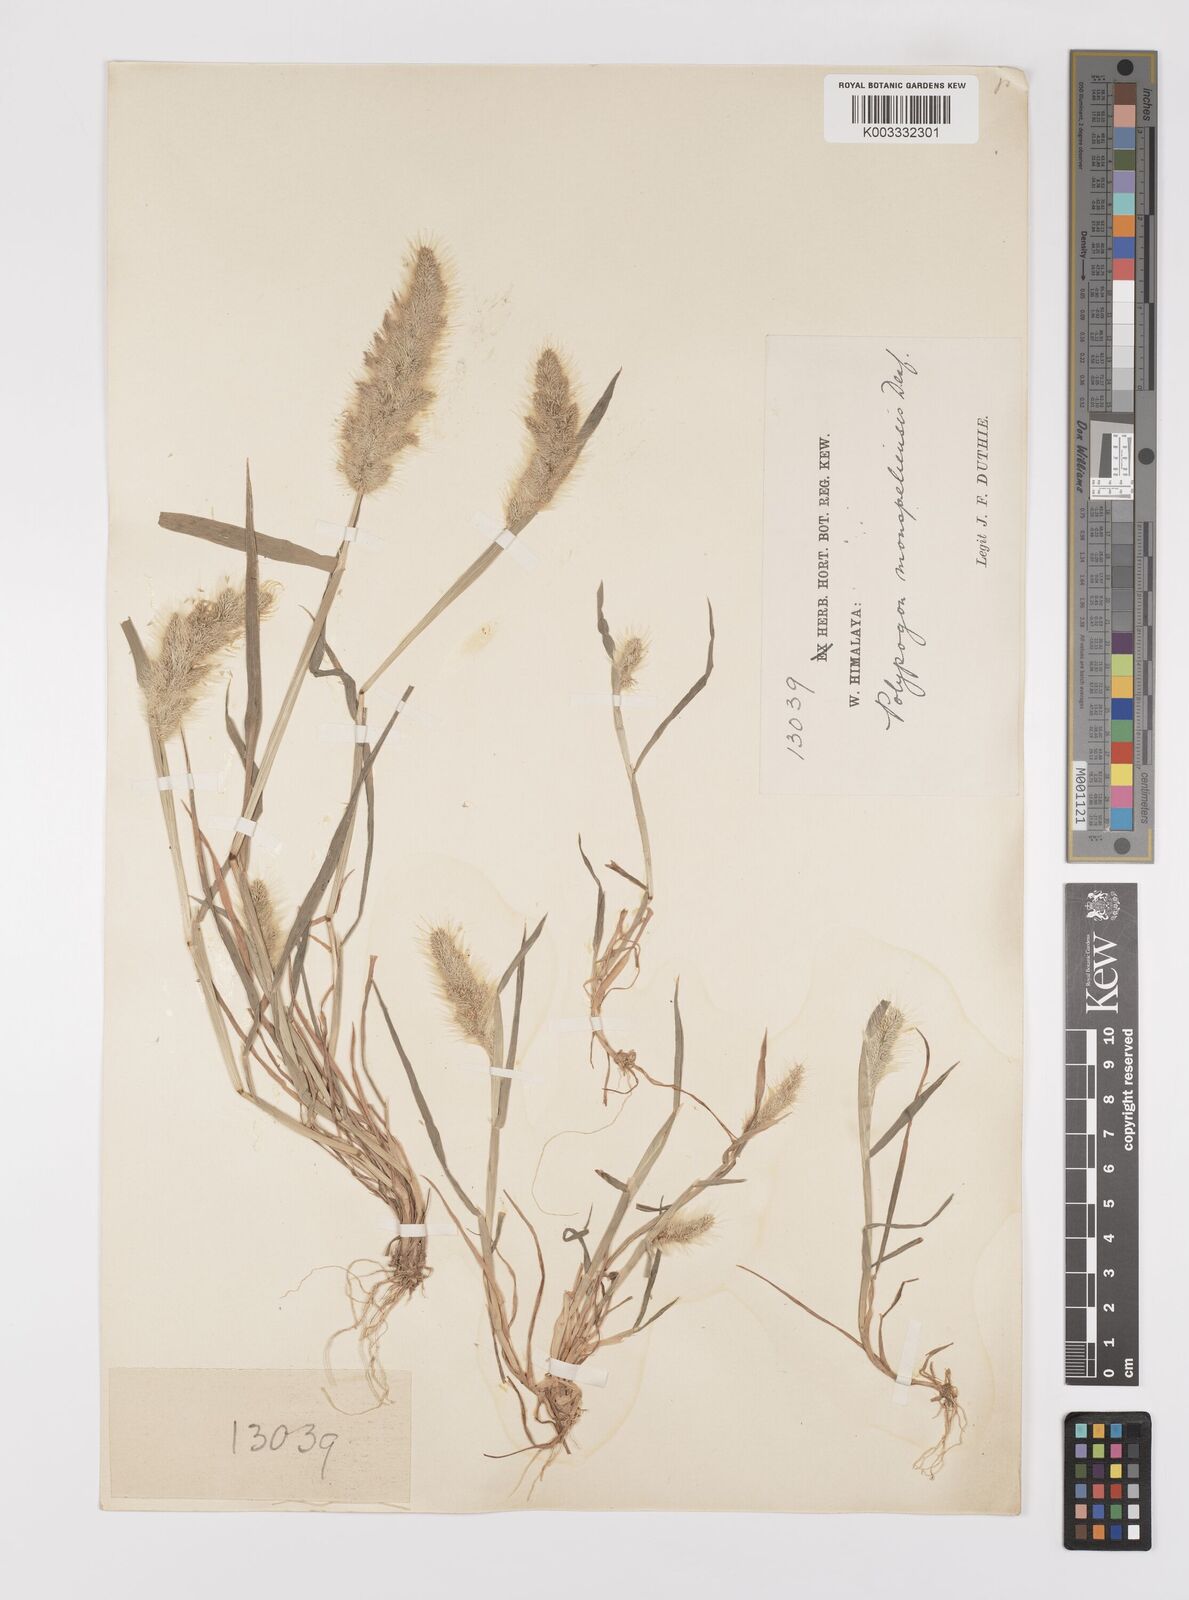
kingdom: Plantae
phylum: Tracheophyta
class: Liliopsida
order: Poales
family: Poaceae
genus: Polypogon
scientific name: Polypogon monspeliensis
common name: Annual rabbitsfoot grass
